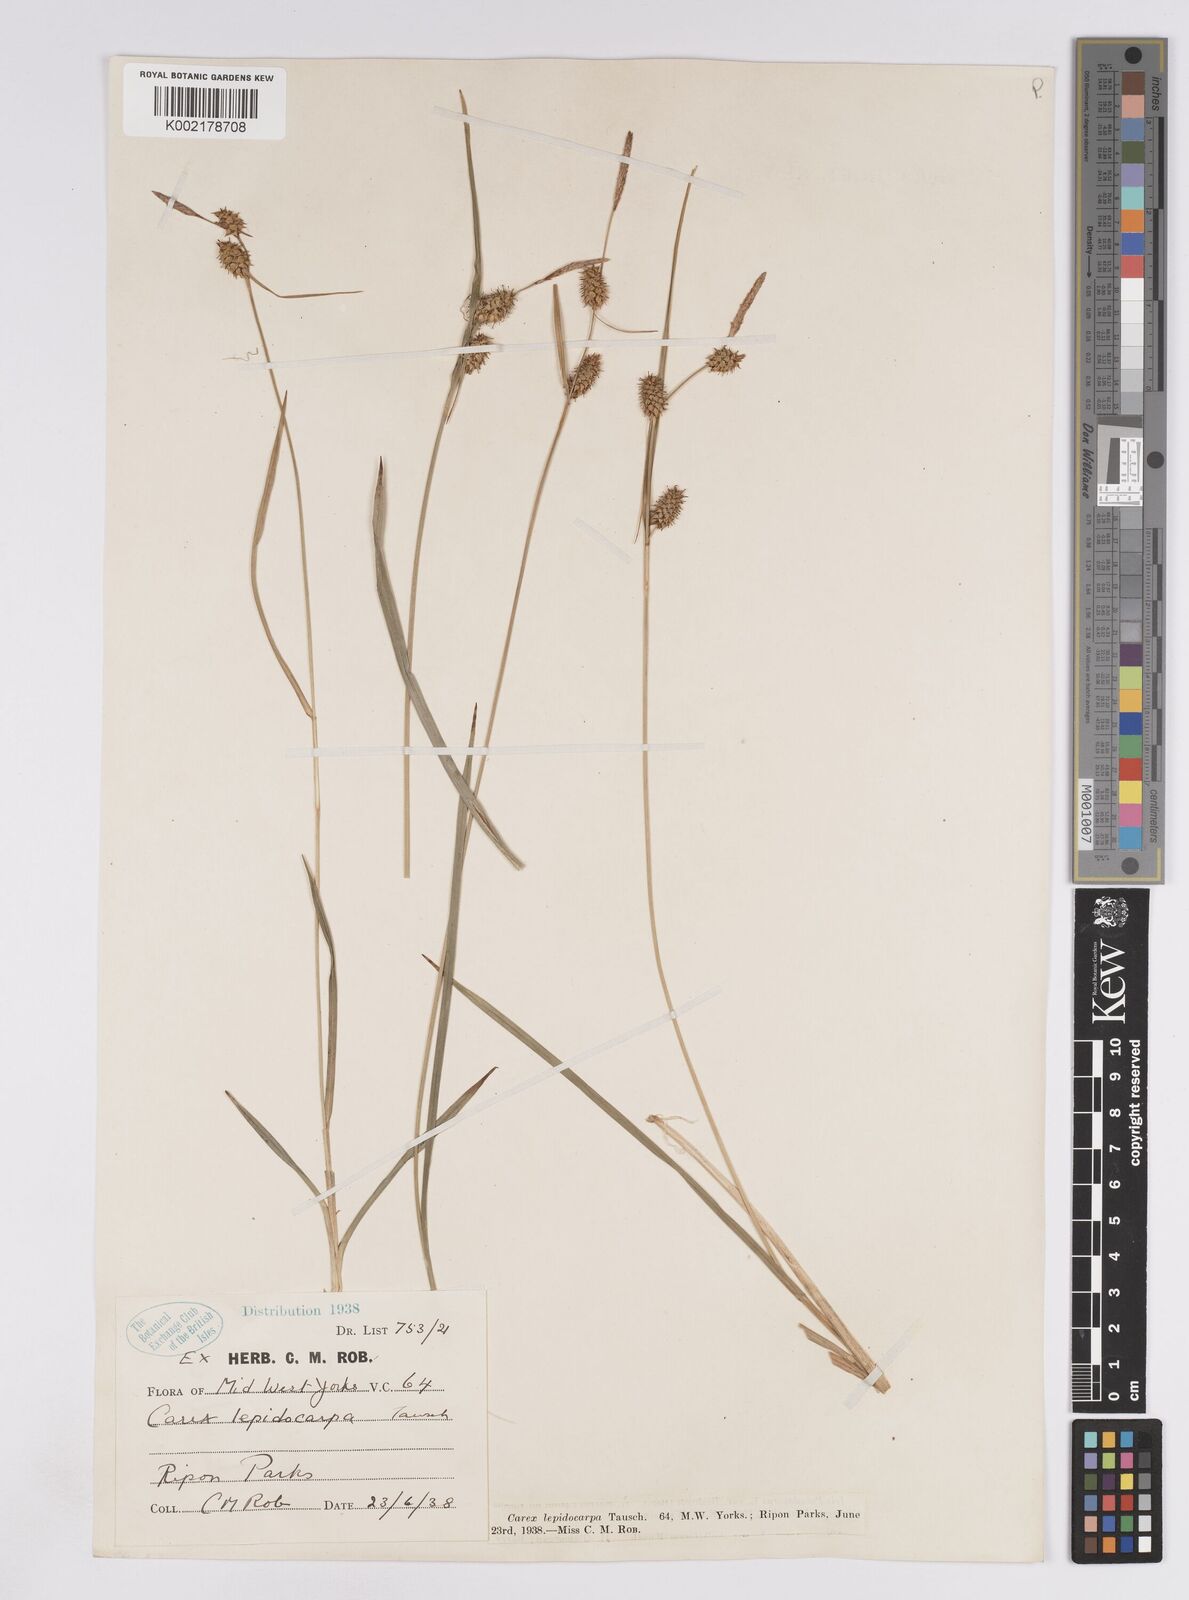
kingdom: Plantae
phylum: Tracheophyta
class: Liliopsida
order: Poales
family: Cyperaceae
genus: Carex
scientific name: Carex lepidocarpa
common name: Long-stalked yellow-sedge
